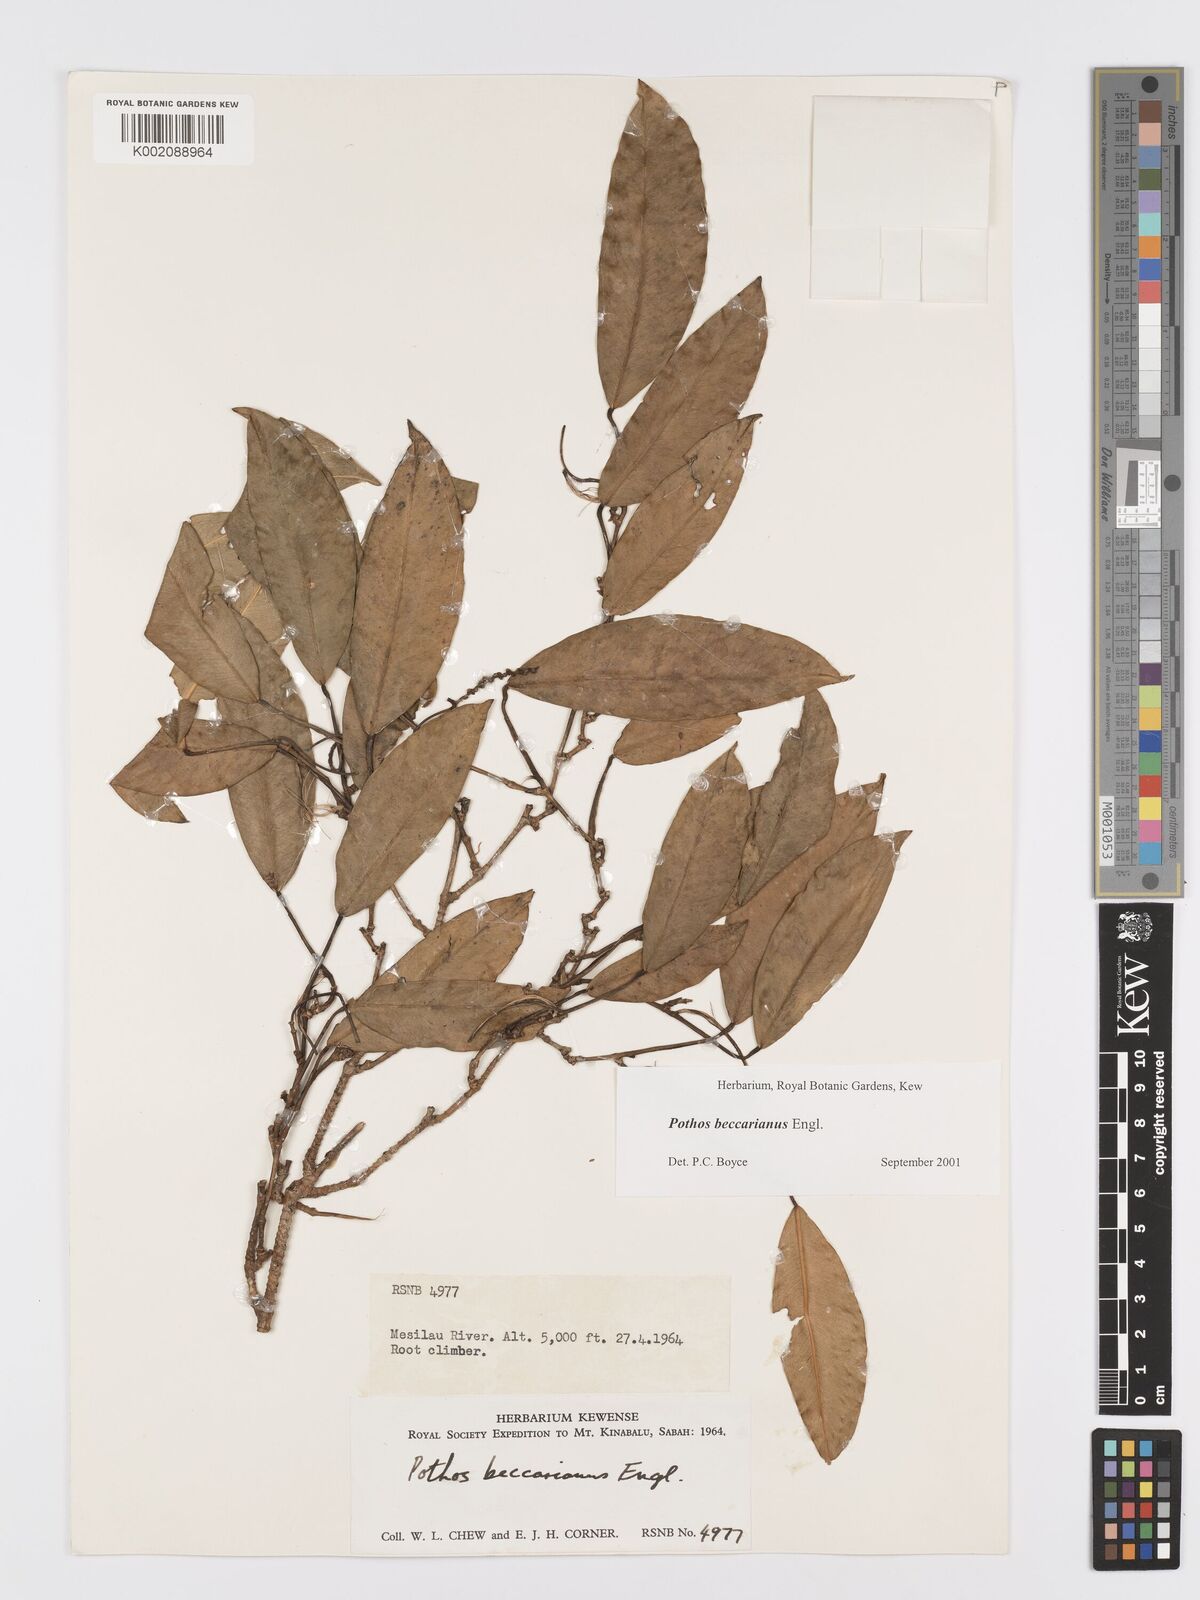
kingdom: Plantae
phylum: Tracheophyta
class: Liliopsida
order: Alismatales
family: Araceae
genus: Pothos
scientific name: Pothos beccarianus
